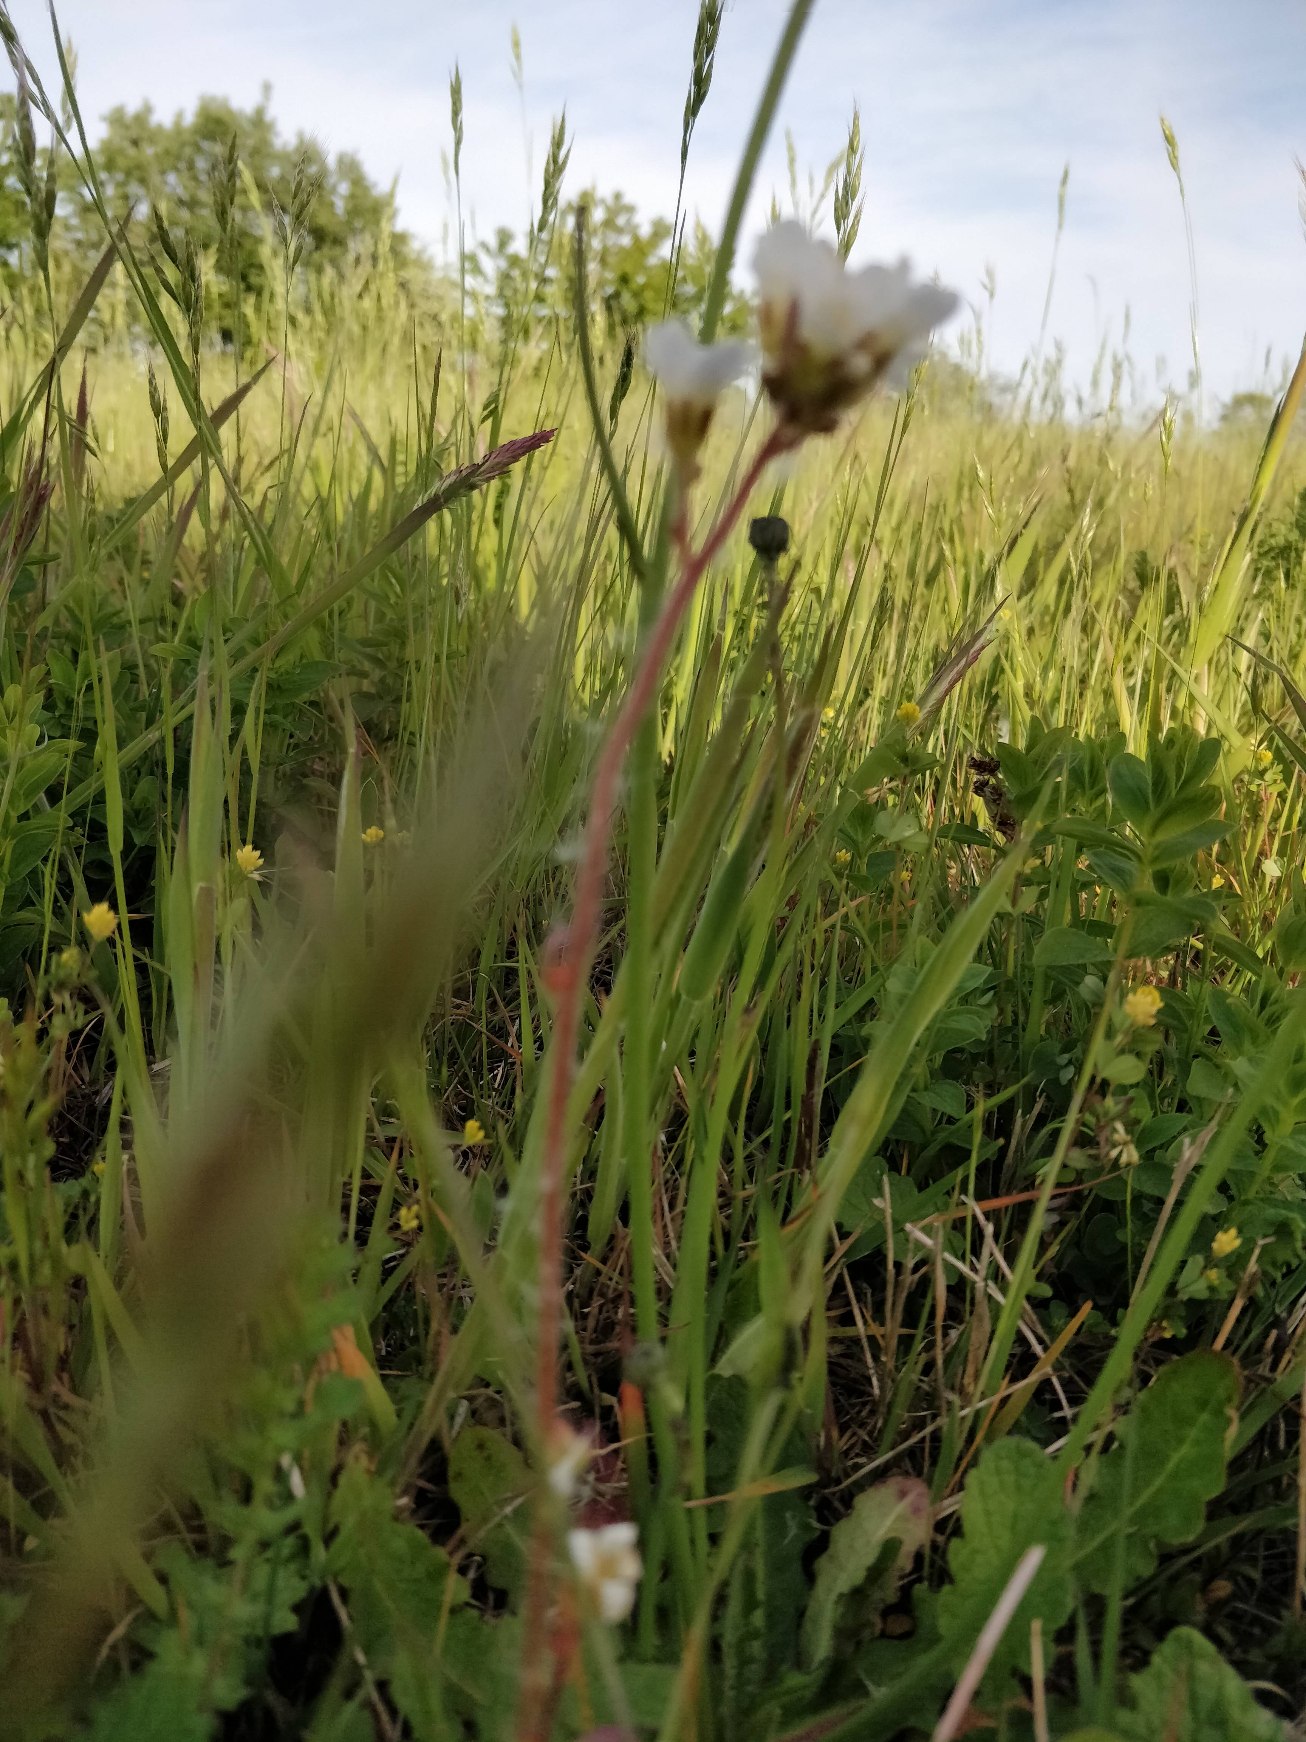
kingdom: Plantae
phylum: Tracheophyta
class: Magnoliopsida
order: Saxifragales
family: Saxifragaceae
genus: Saxifraga
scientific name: Saxifraga granulata
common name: Kornet stenbræk
